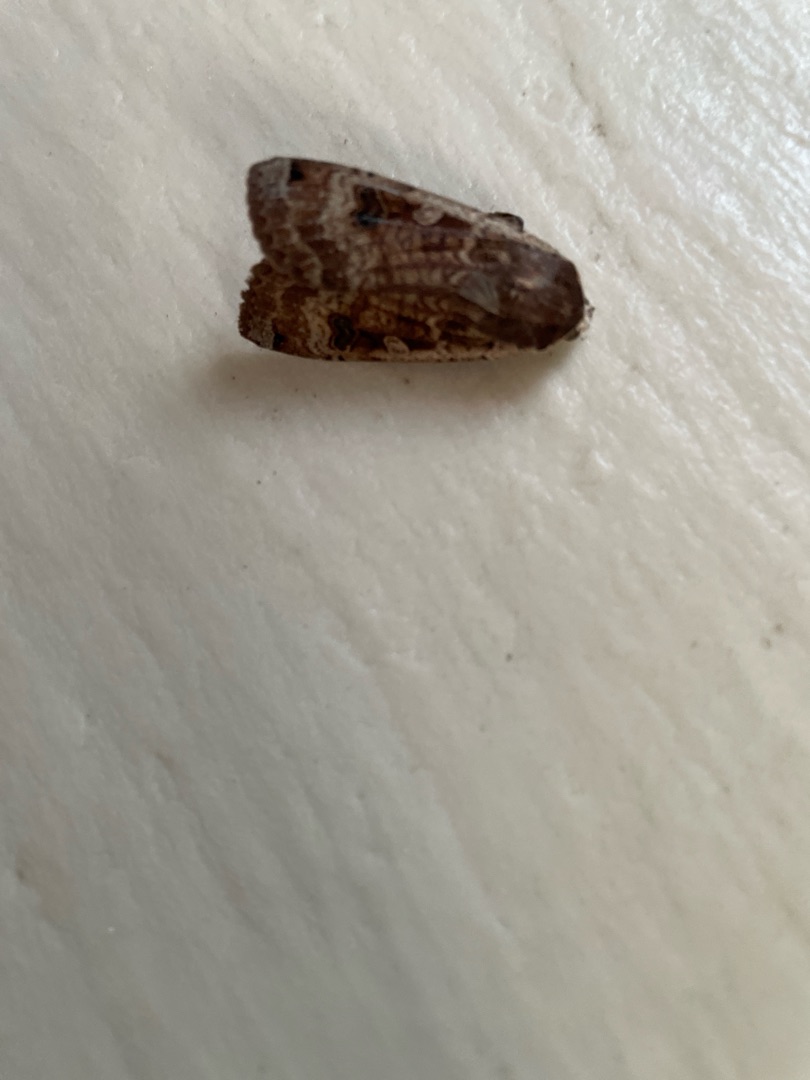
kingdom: Animalia
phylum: Arthropoda
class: Insecta
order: Lepidoptera
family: Noctuidae
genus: Noctua
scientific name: Noctua pronuba
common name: Stor smutugle
